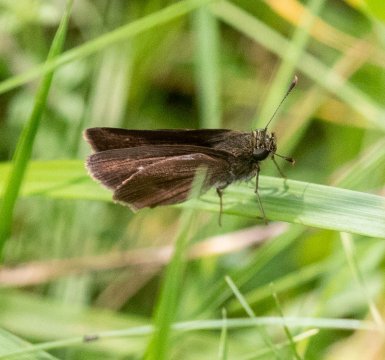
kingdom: Animalia
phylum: Arthropoda
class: Insecta
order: Lepidoptera
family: Hesperiidae
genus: Euphyes
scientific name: Euphyes vestris
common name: Dun Skipper
